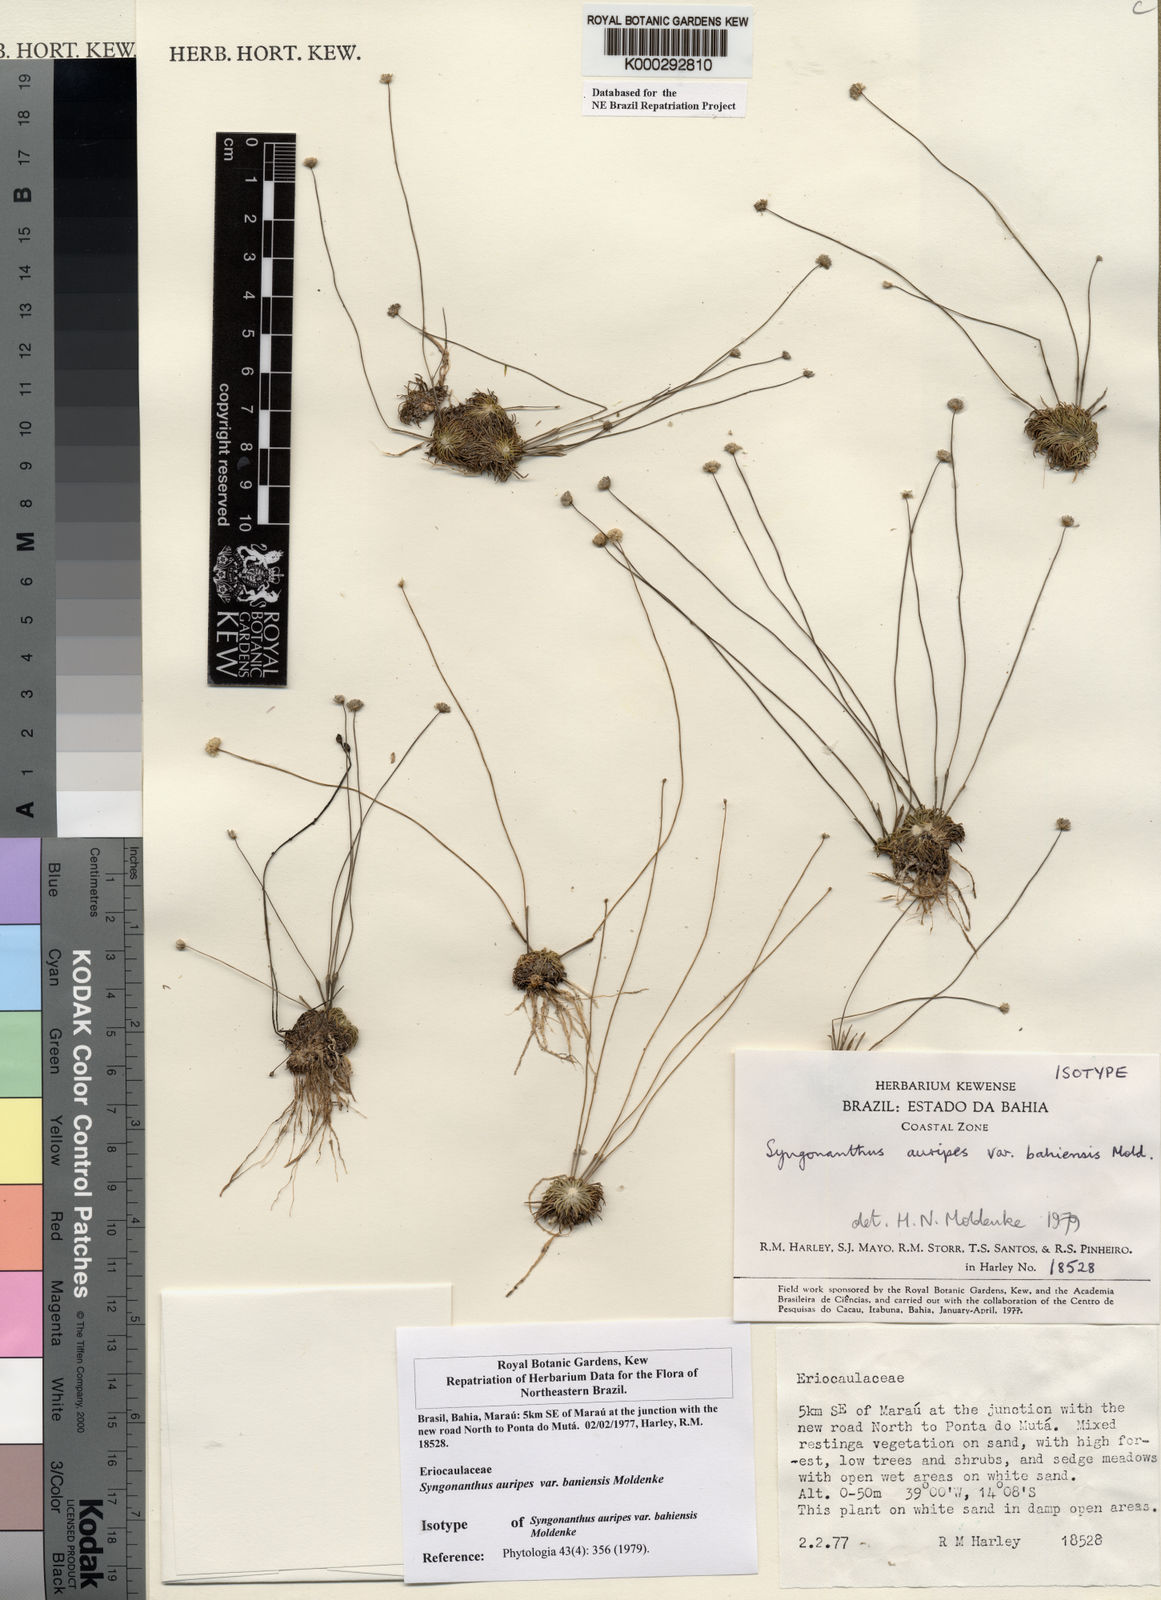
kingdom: Plantae
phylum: Tracheophyta
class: Liliopsida
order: Poales
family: Eriocaulaceae
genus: Syngonanthus
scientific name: Syngonanthus auripes
